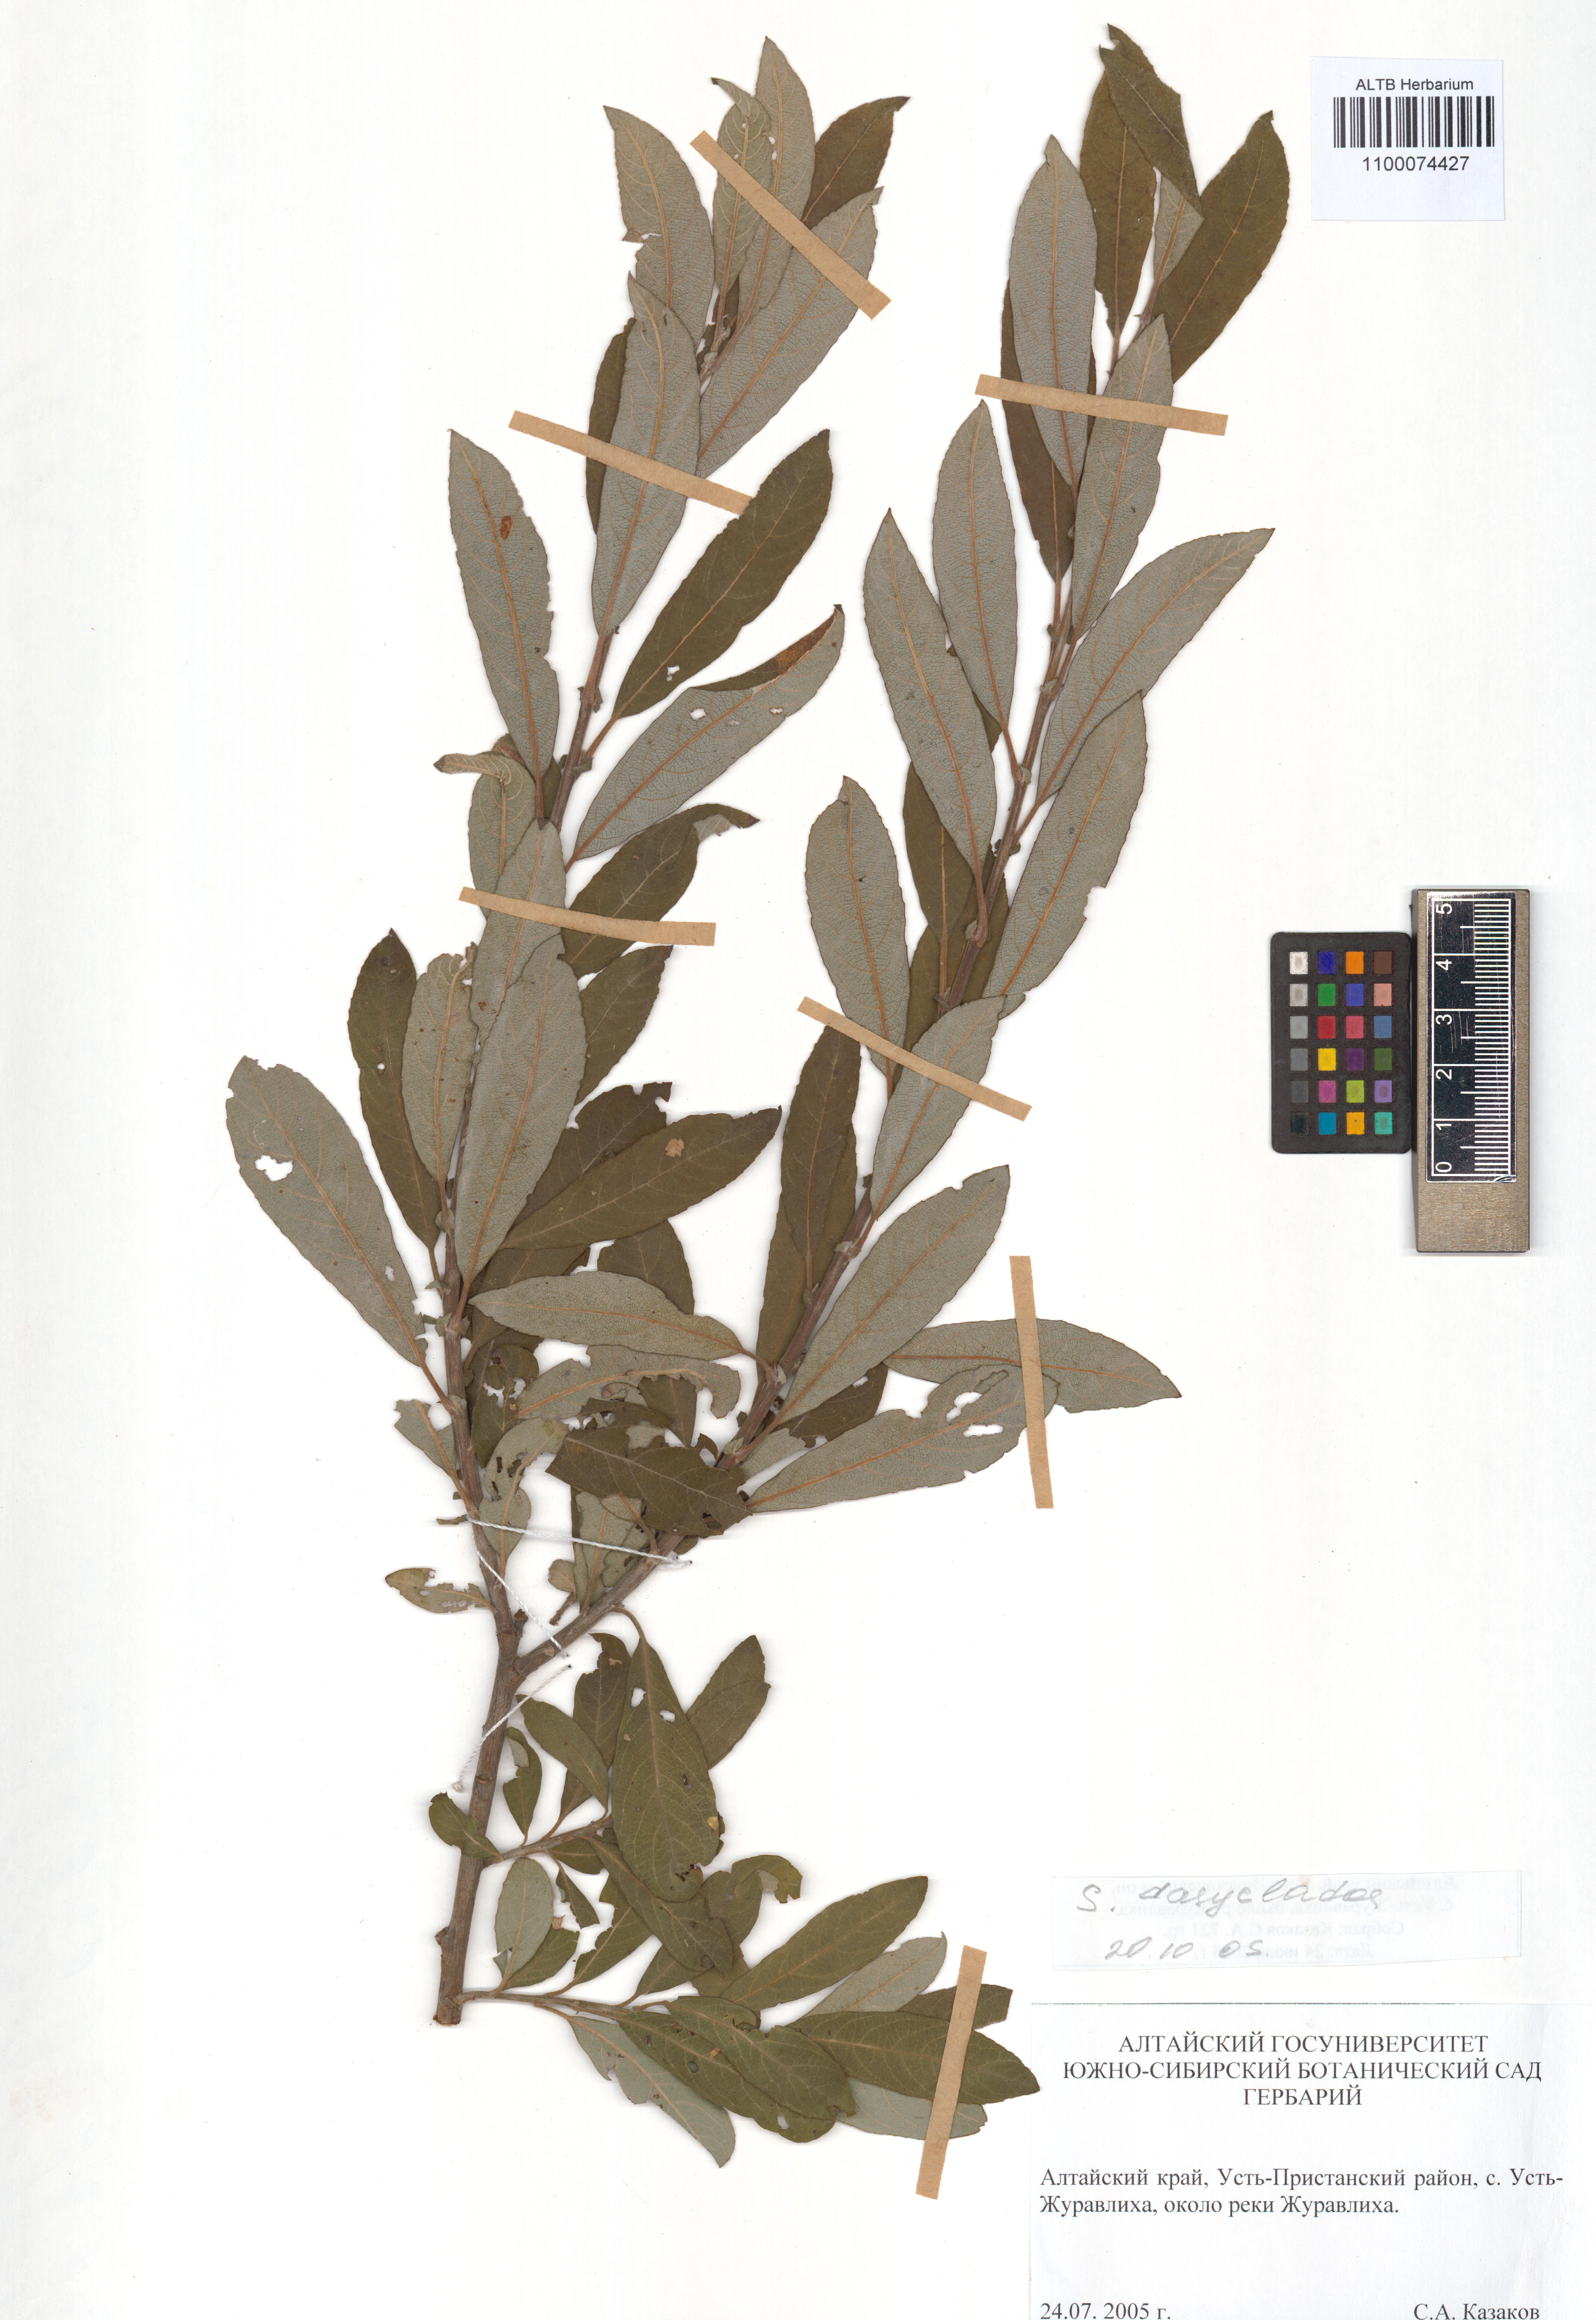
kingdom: Plantae
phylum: Tracheophyta
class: Magnoliopsida
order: Malpighiales
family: Salicaceae
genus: Salix
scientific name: Salix gmelinii
